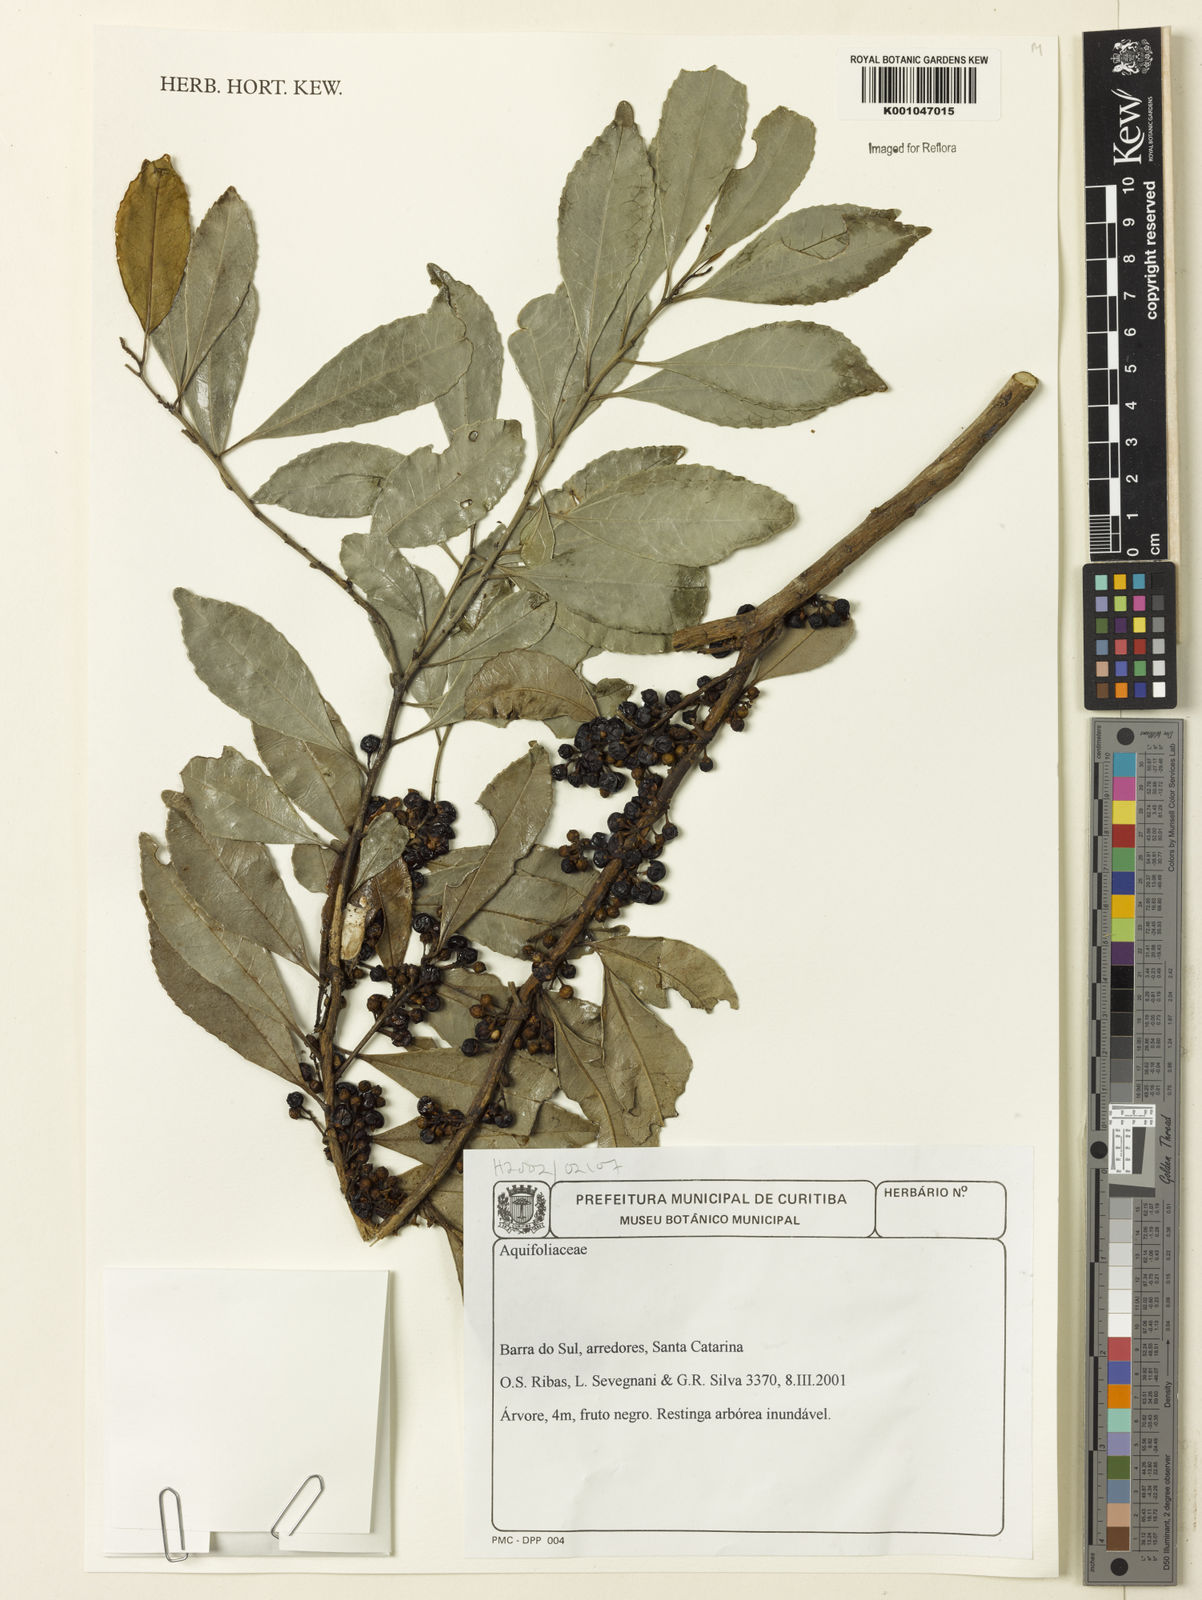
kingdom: Plantae
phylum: Tracheophyta
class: Magnoliopsida
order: Aquifoliales
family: Aquifoliaceae
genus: Ilex
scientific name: Ilex
